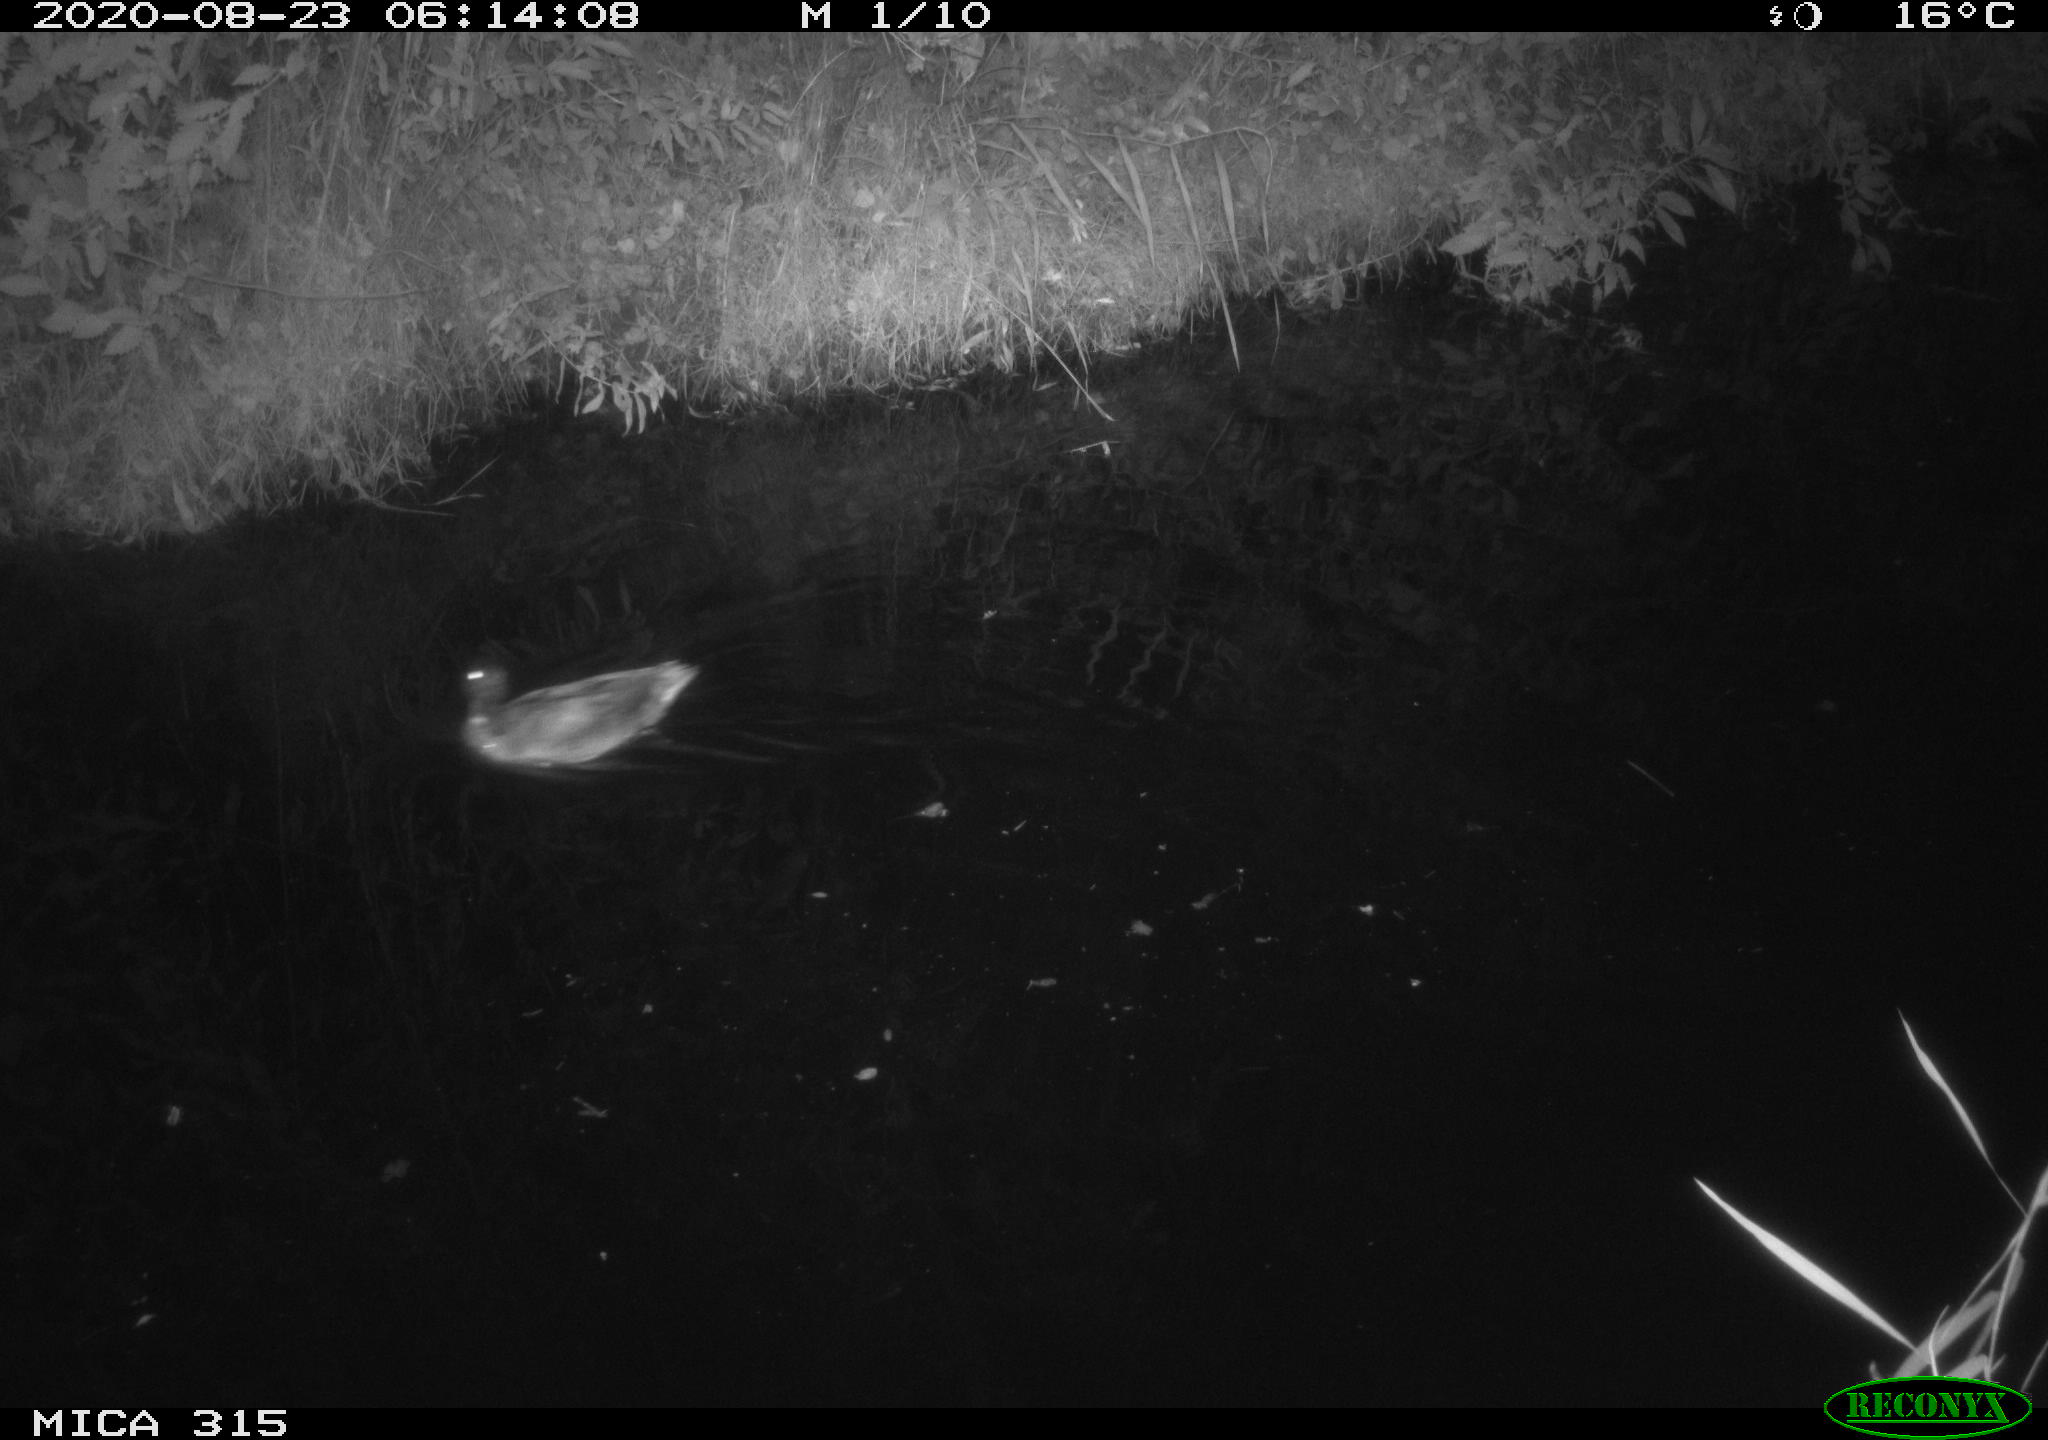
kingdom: Animalia
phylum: Chordata
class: Aves
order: Anseriformes
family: Anatidae
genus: Anas
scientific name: Anas platyrhynchos
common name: Mallard
